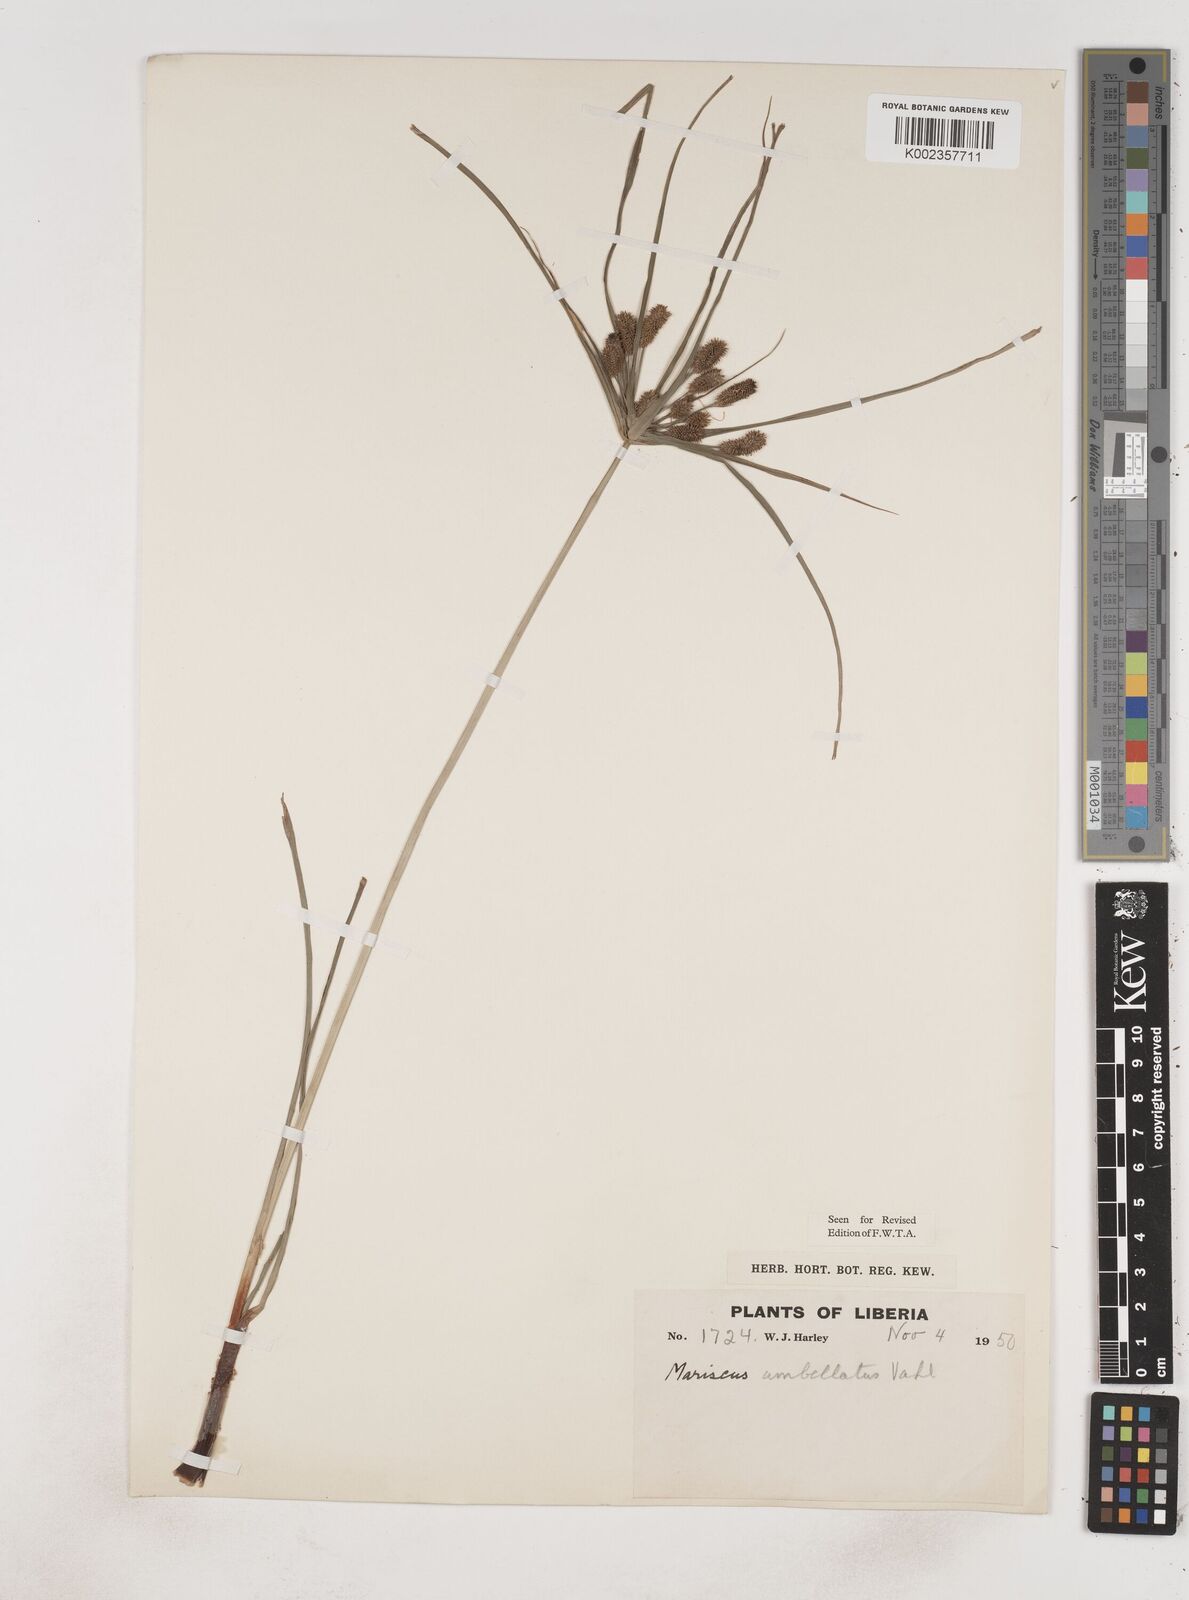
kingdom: Plantae
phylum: Tracheophyta
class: Liliopsida
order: Poales
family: Cyperaceae
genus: Cyperus
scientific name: Cyperus sublimis
